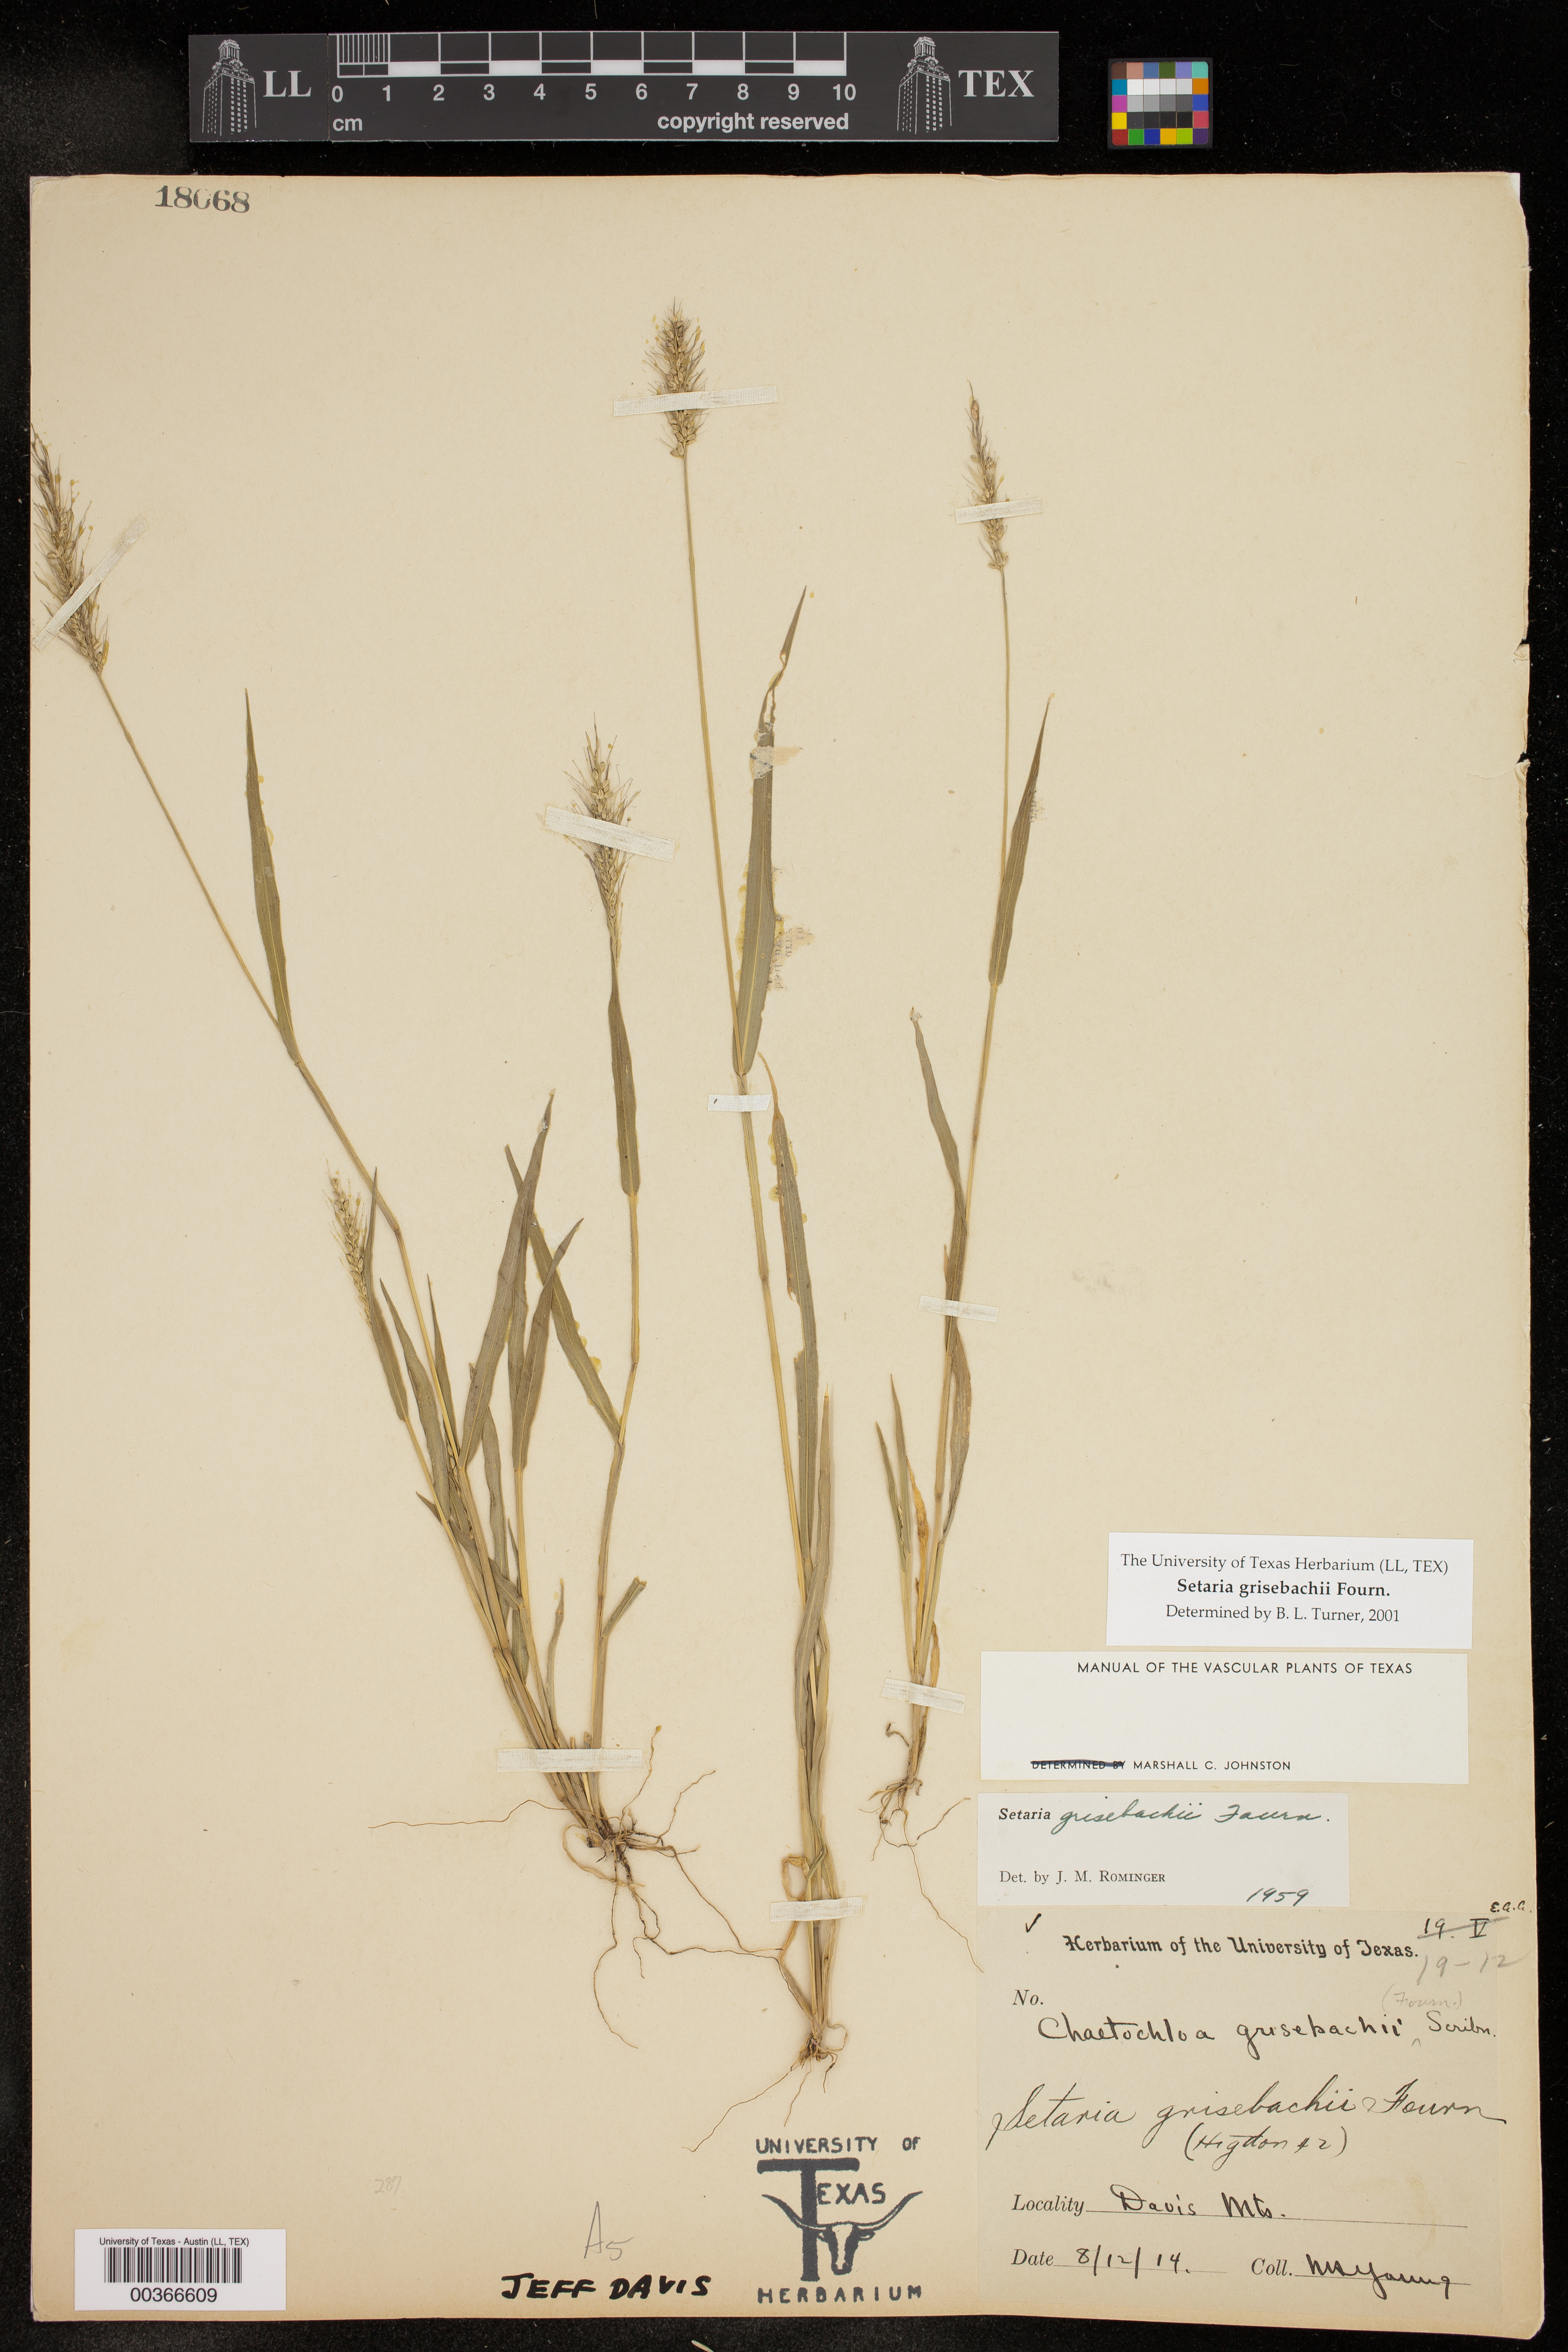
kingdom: Plantae
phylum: Tracheophyta
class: Liliopsida
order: Poales
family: Poaceae
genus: Setaria
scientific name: Setaria grisebachii
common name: Grisebach's bristle grass
